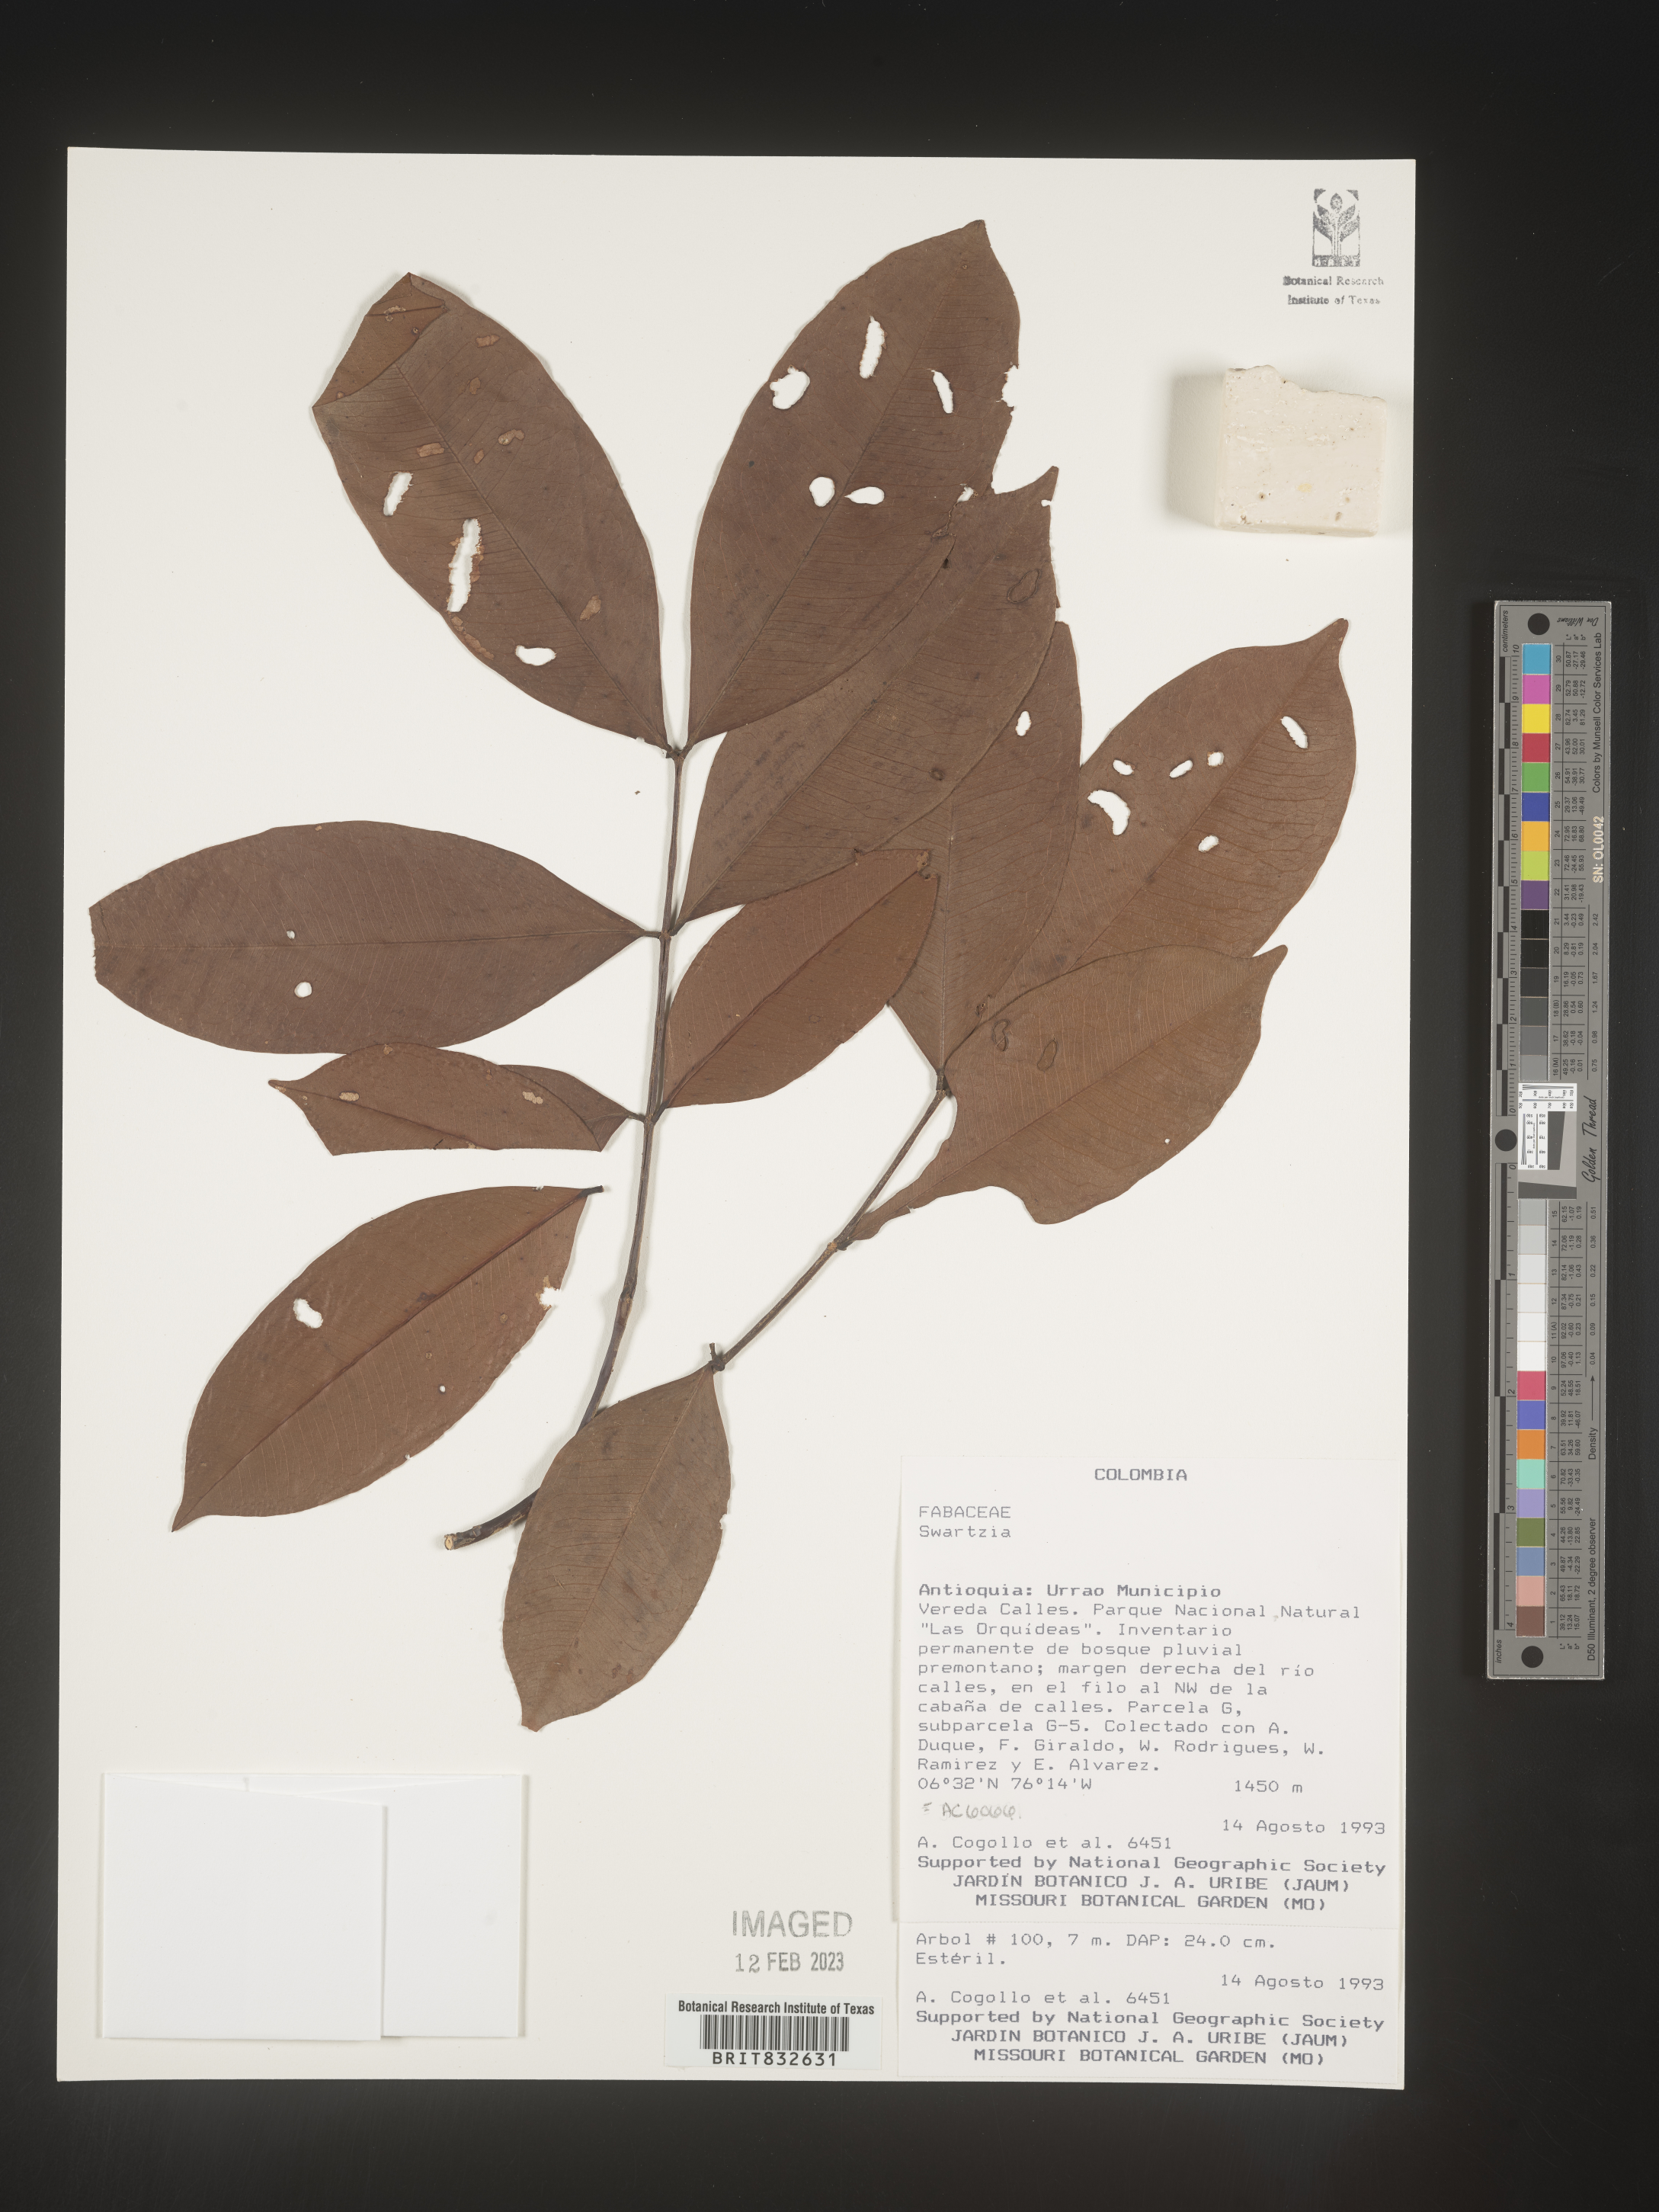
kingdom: Plantae
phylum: Tracheophyta
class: Magnoliopsida
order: Fabales
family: Fabaceae
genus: Swartzia
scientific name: Swartzia
